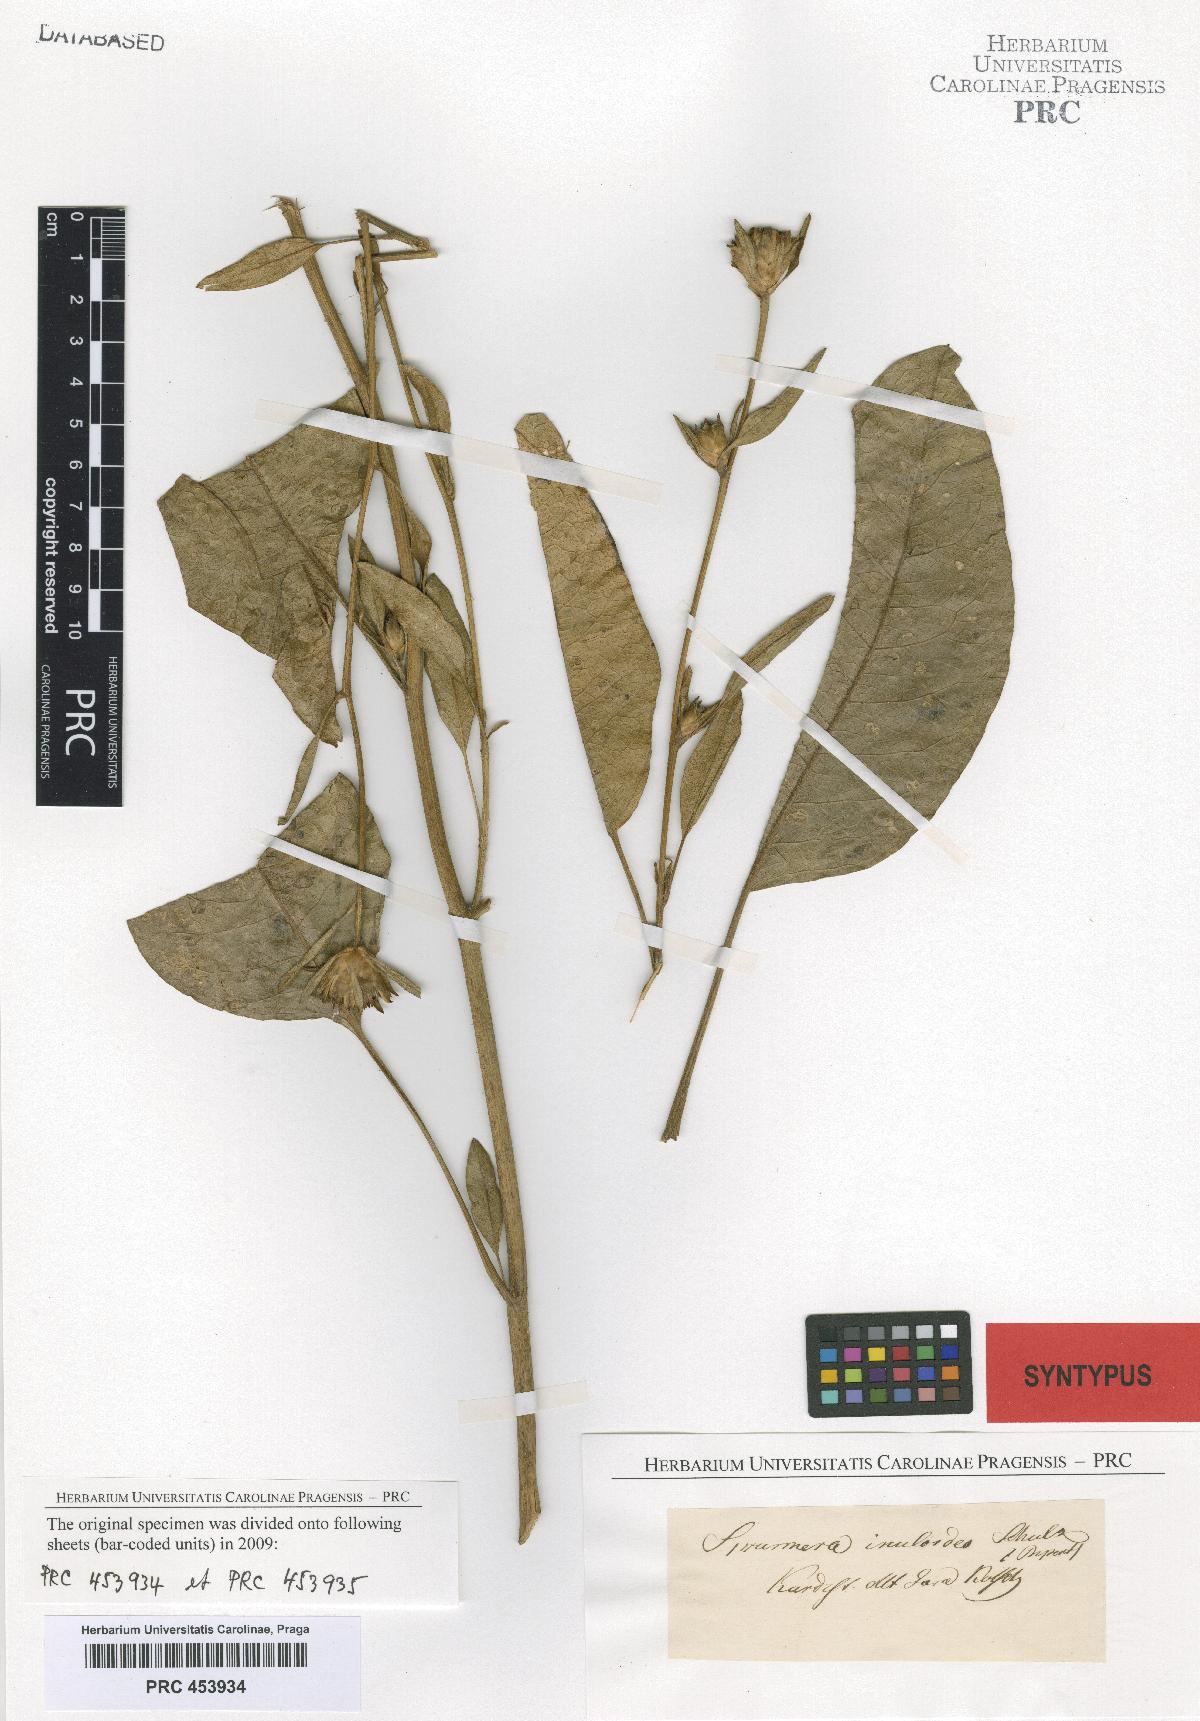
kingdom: Plantae
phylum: Tracheophyta
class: Magnoliopsida
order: Asterales
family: Asteraceae
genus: Inula
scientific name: Inula inuloides
